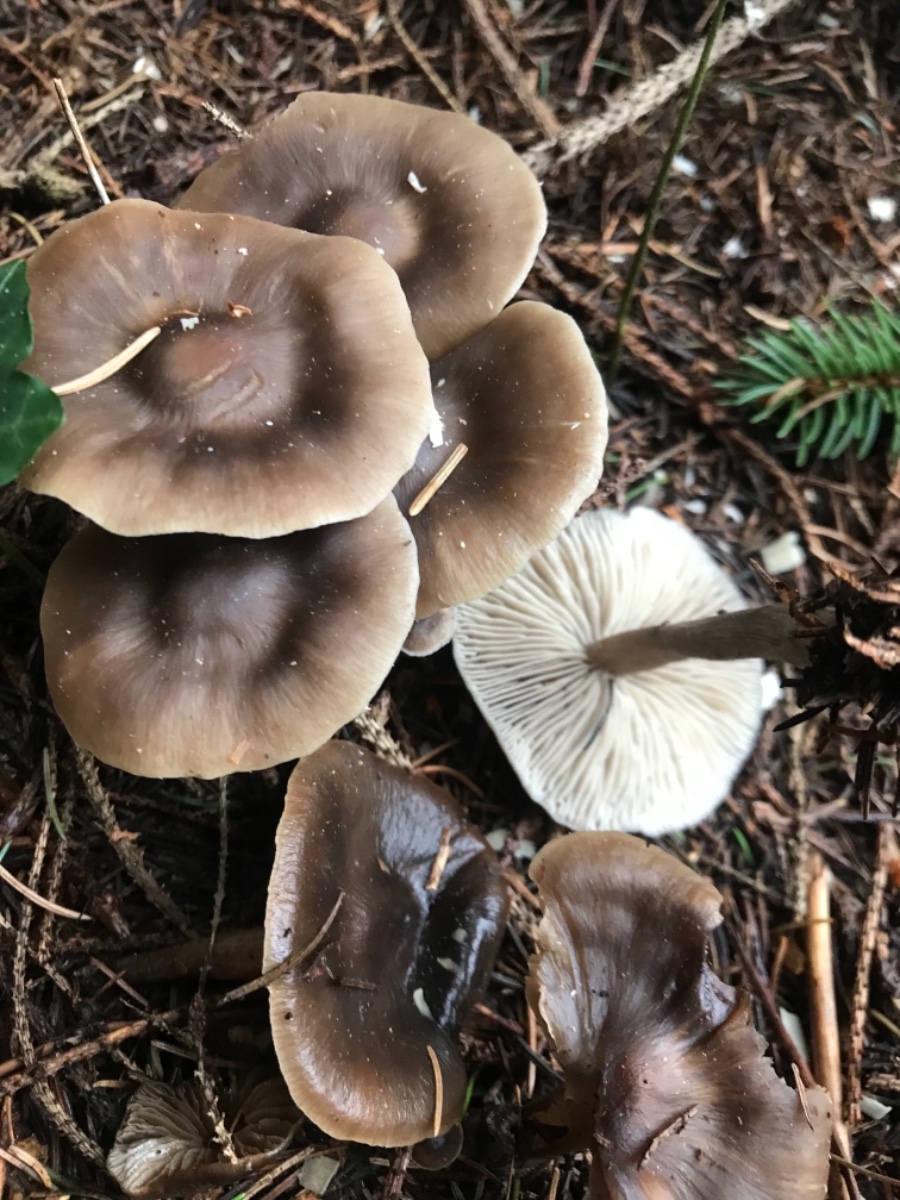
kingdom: Fungi
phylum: Basidiomycota
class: Agaricomycetes
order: Agaricales
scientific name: Agaricales
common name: champignonordenen
